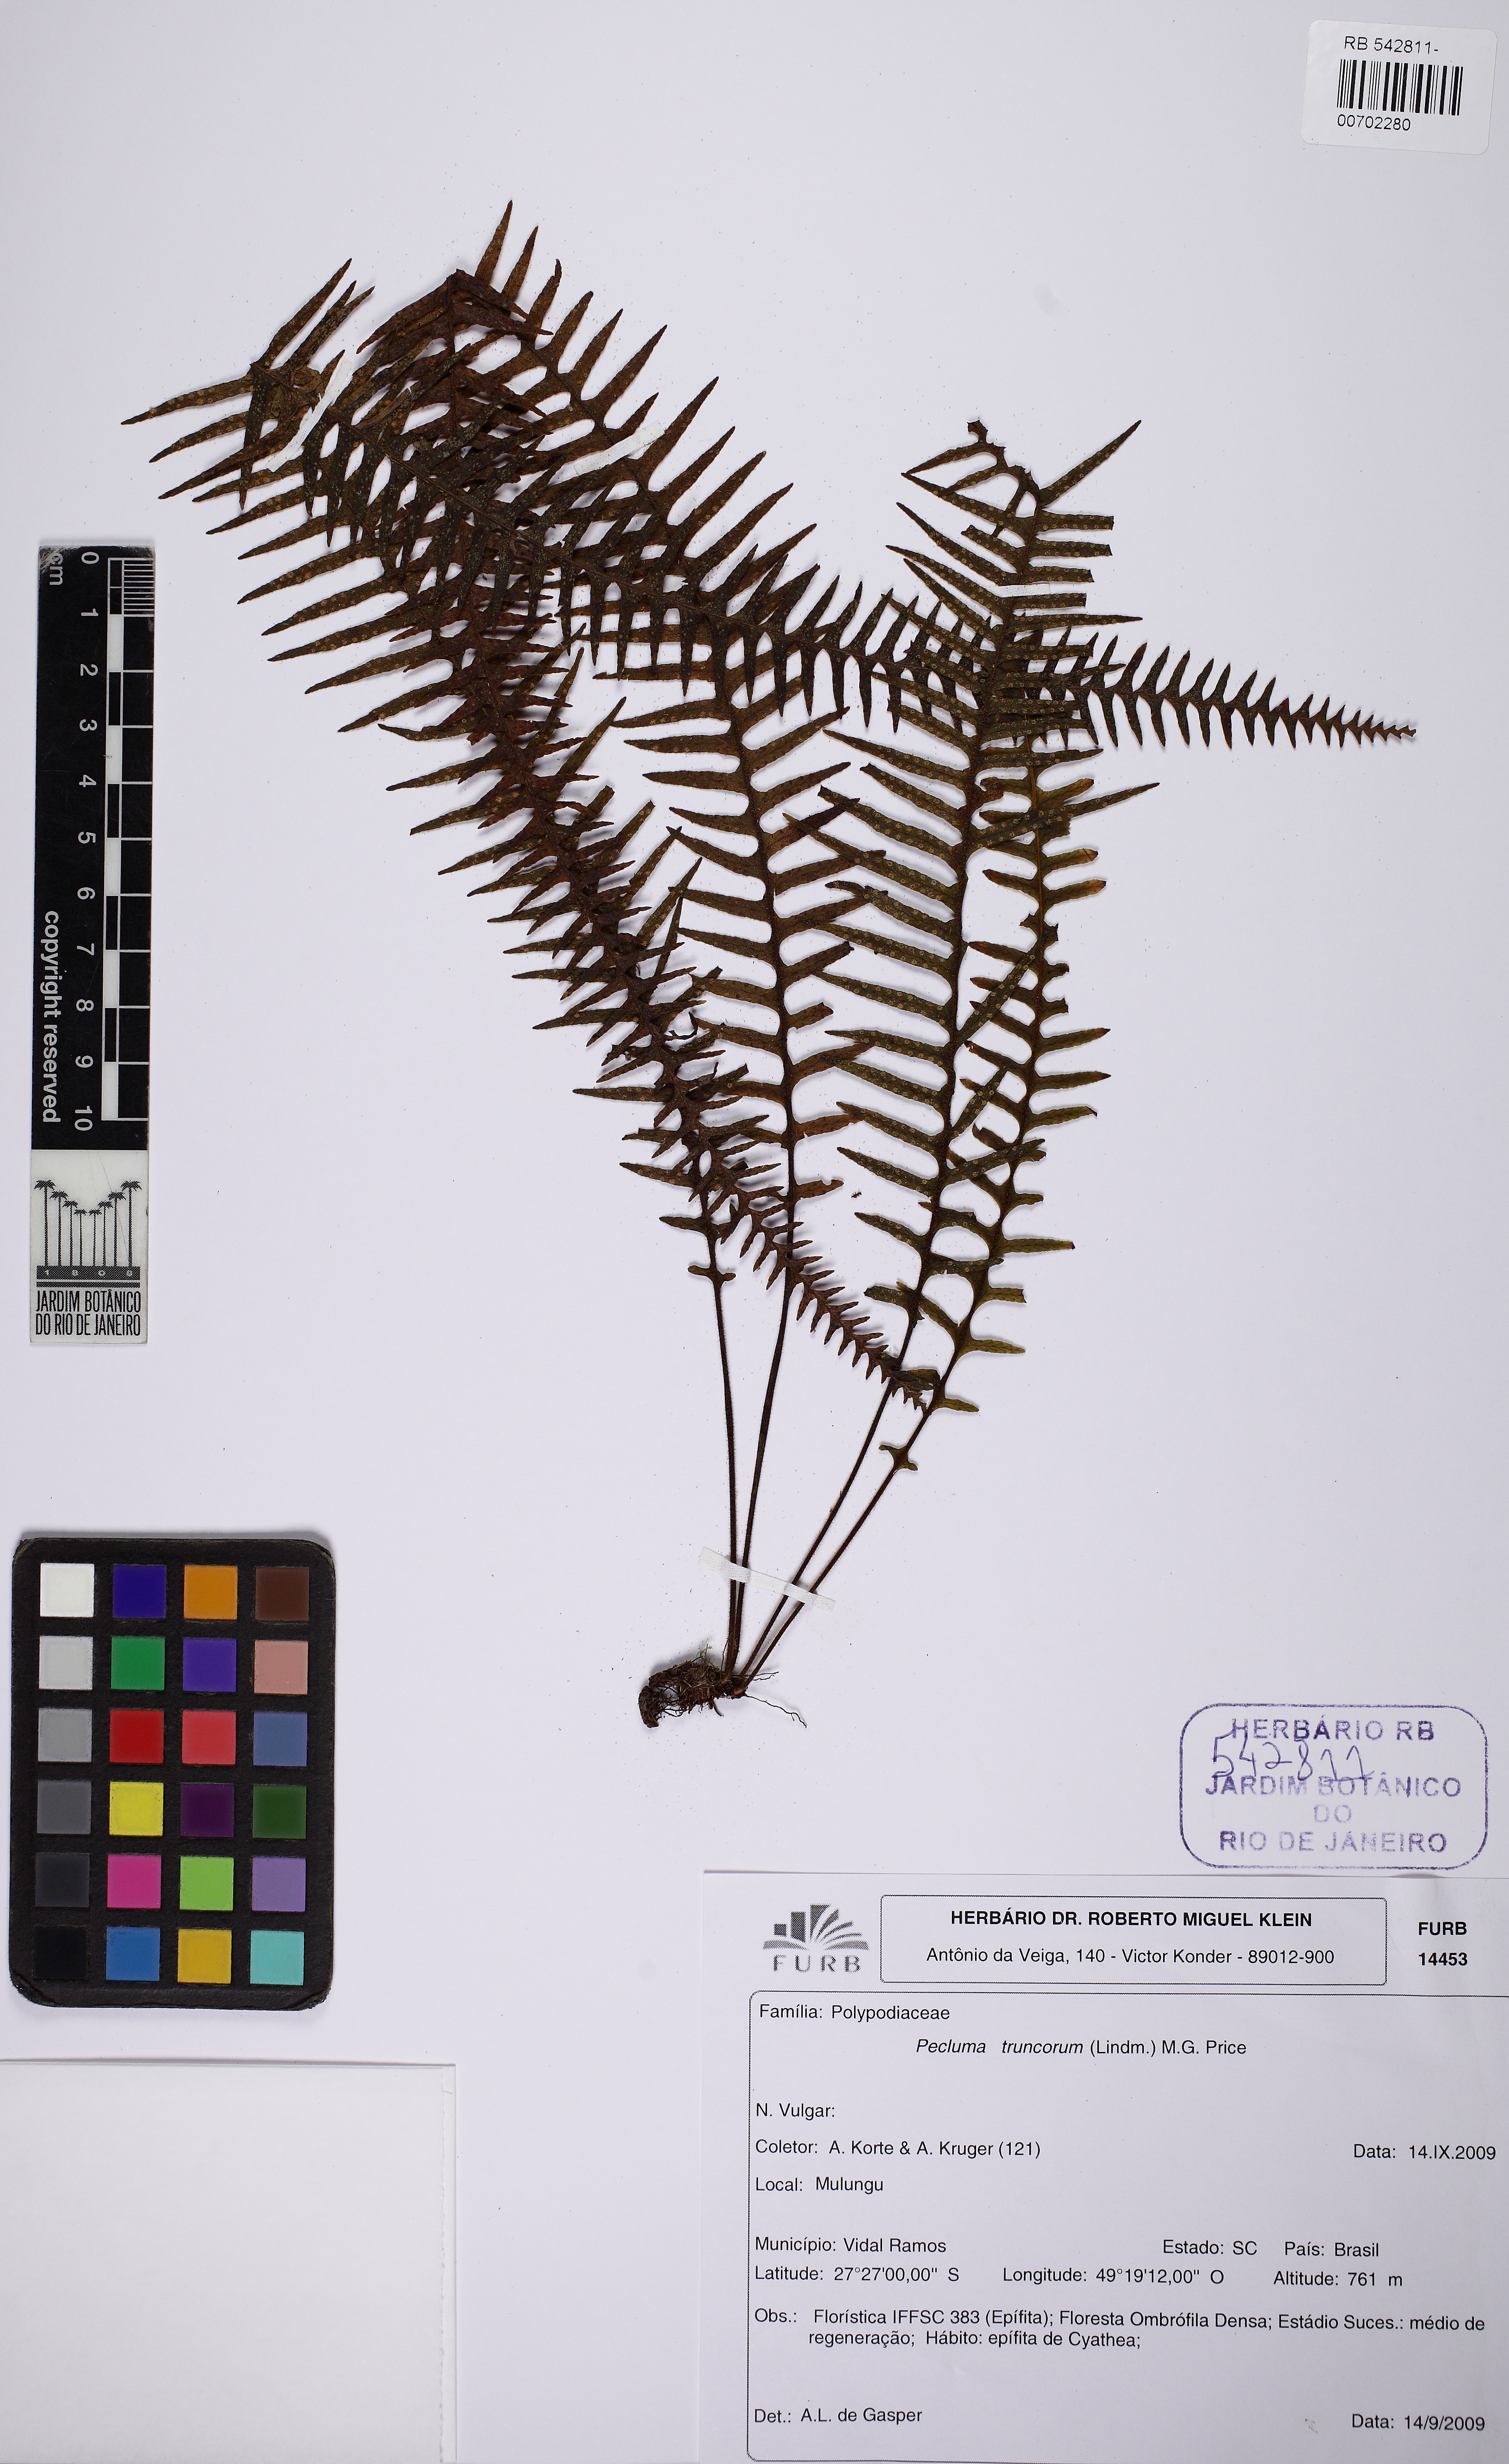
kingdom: Plantae
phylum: Tracheophyta
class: Polypodiopsida
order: Polypodiales
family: Polypodiaceae
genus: Pecluma
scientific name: Pecluma truncorum
